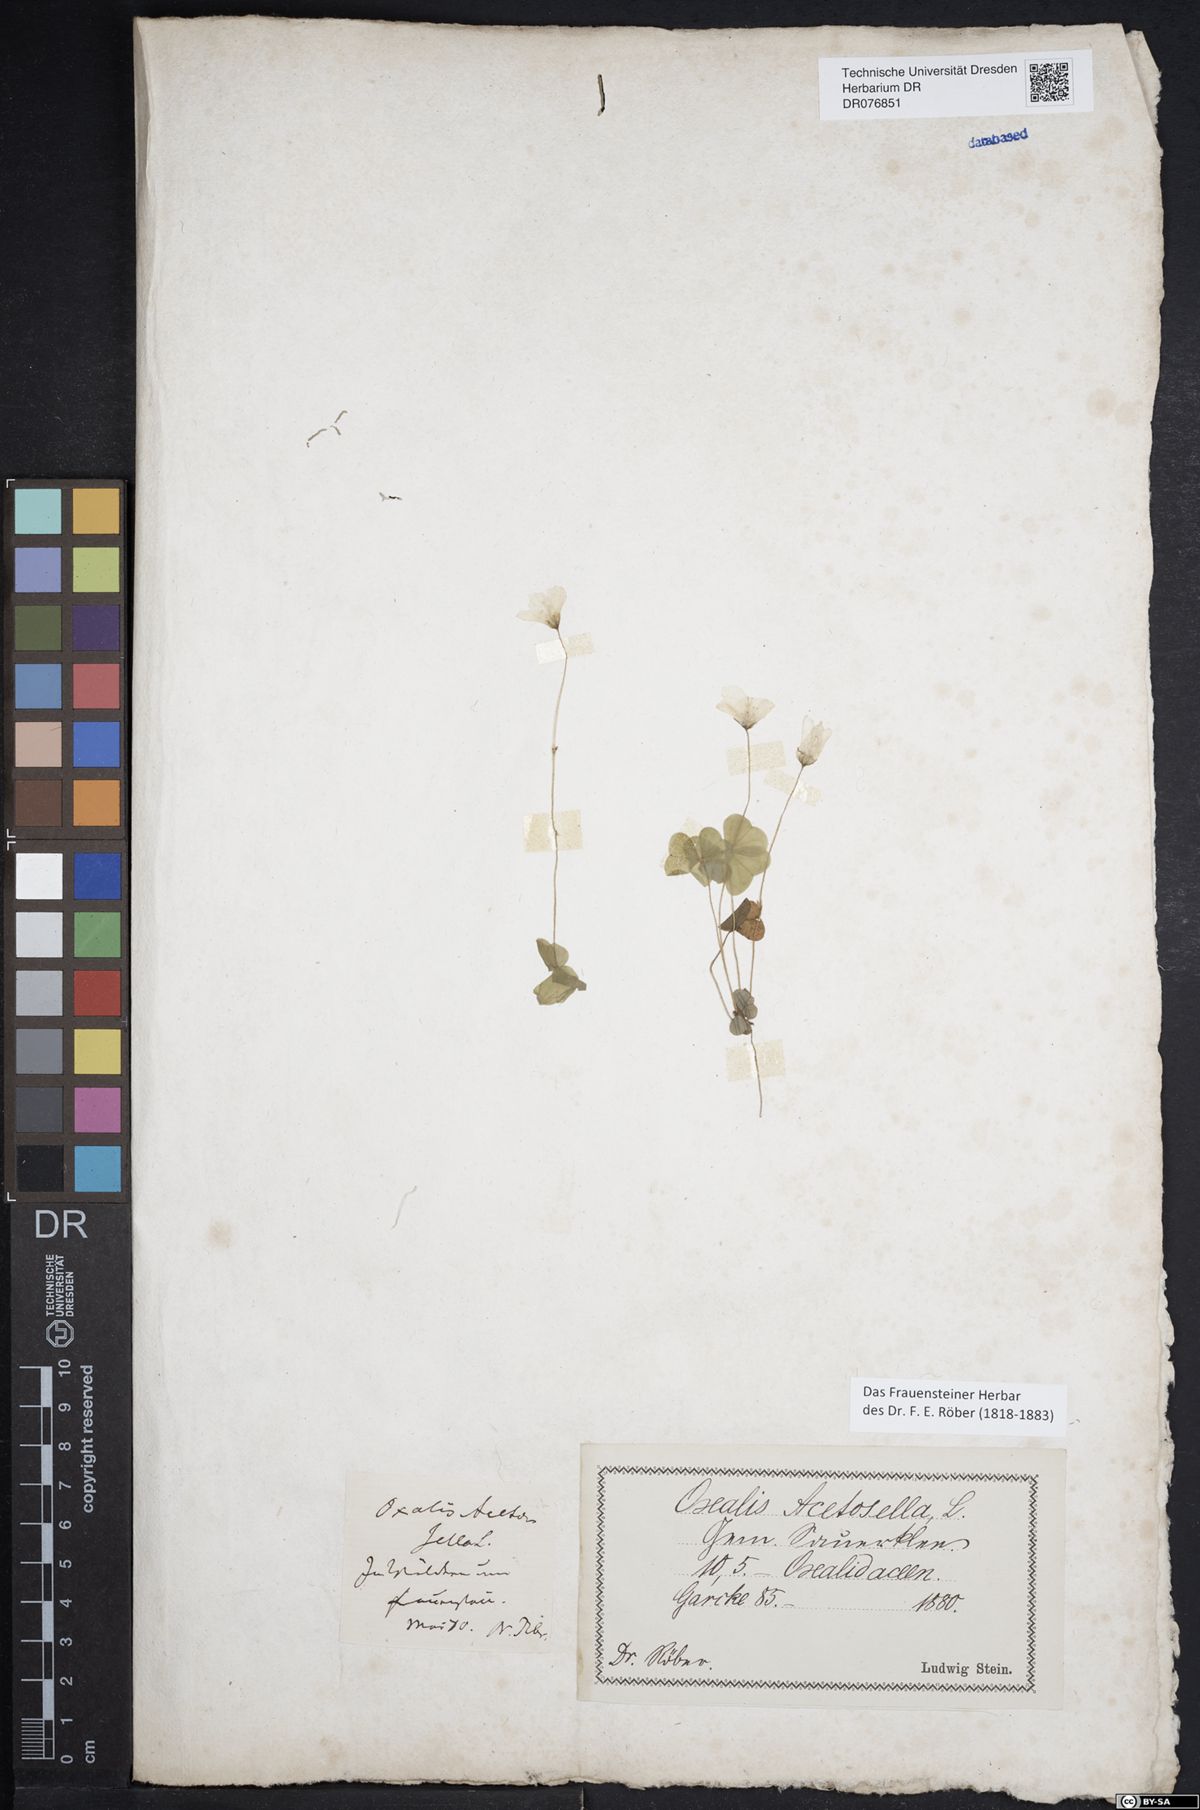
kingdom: Plantae
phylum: Tracheophyta
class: Magnoliopsida
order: Oxalidales
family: Oxalidaceae
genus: Oxalis
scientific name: Oxalis acetosella
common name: Wood-sorrel
